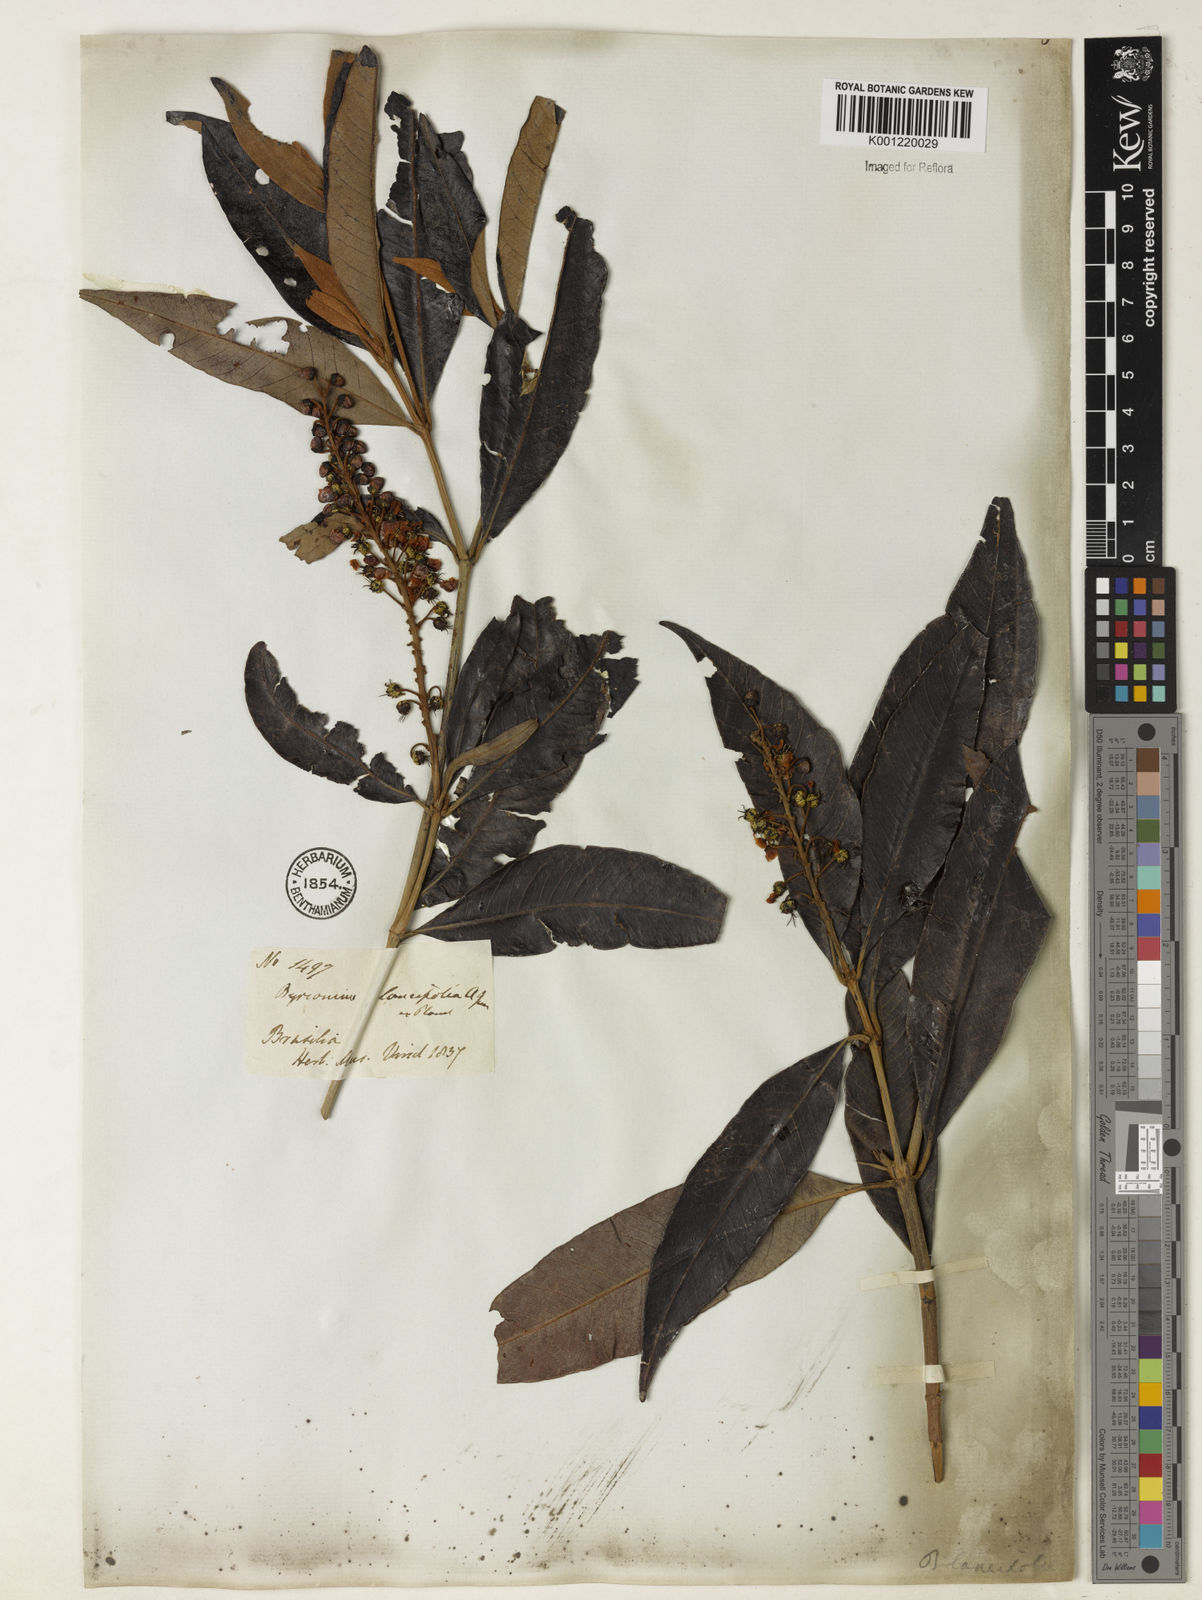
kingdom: Plantae
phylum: Tracheophyta
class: Magnoliopsida
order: Malpighiales
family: Malpighiaceae
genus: Byrsonima
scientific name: Byrsonima lancifolia
